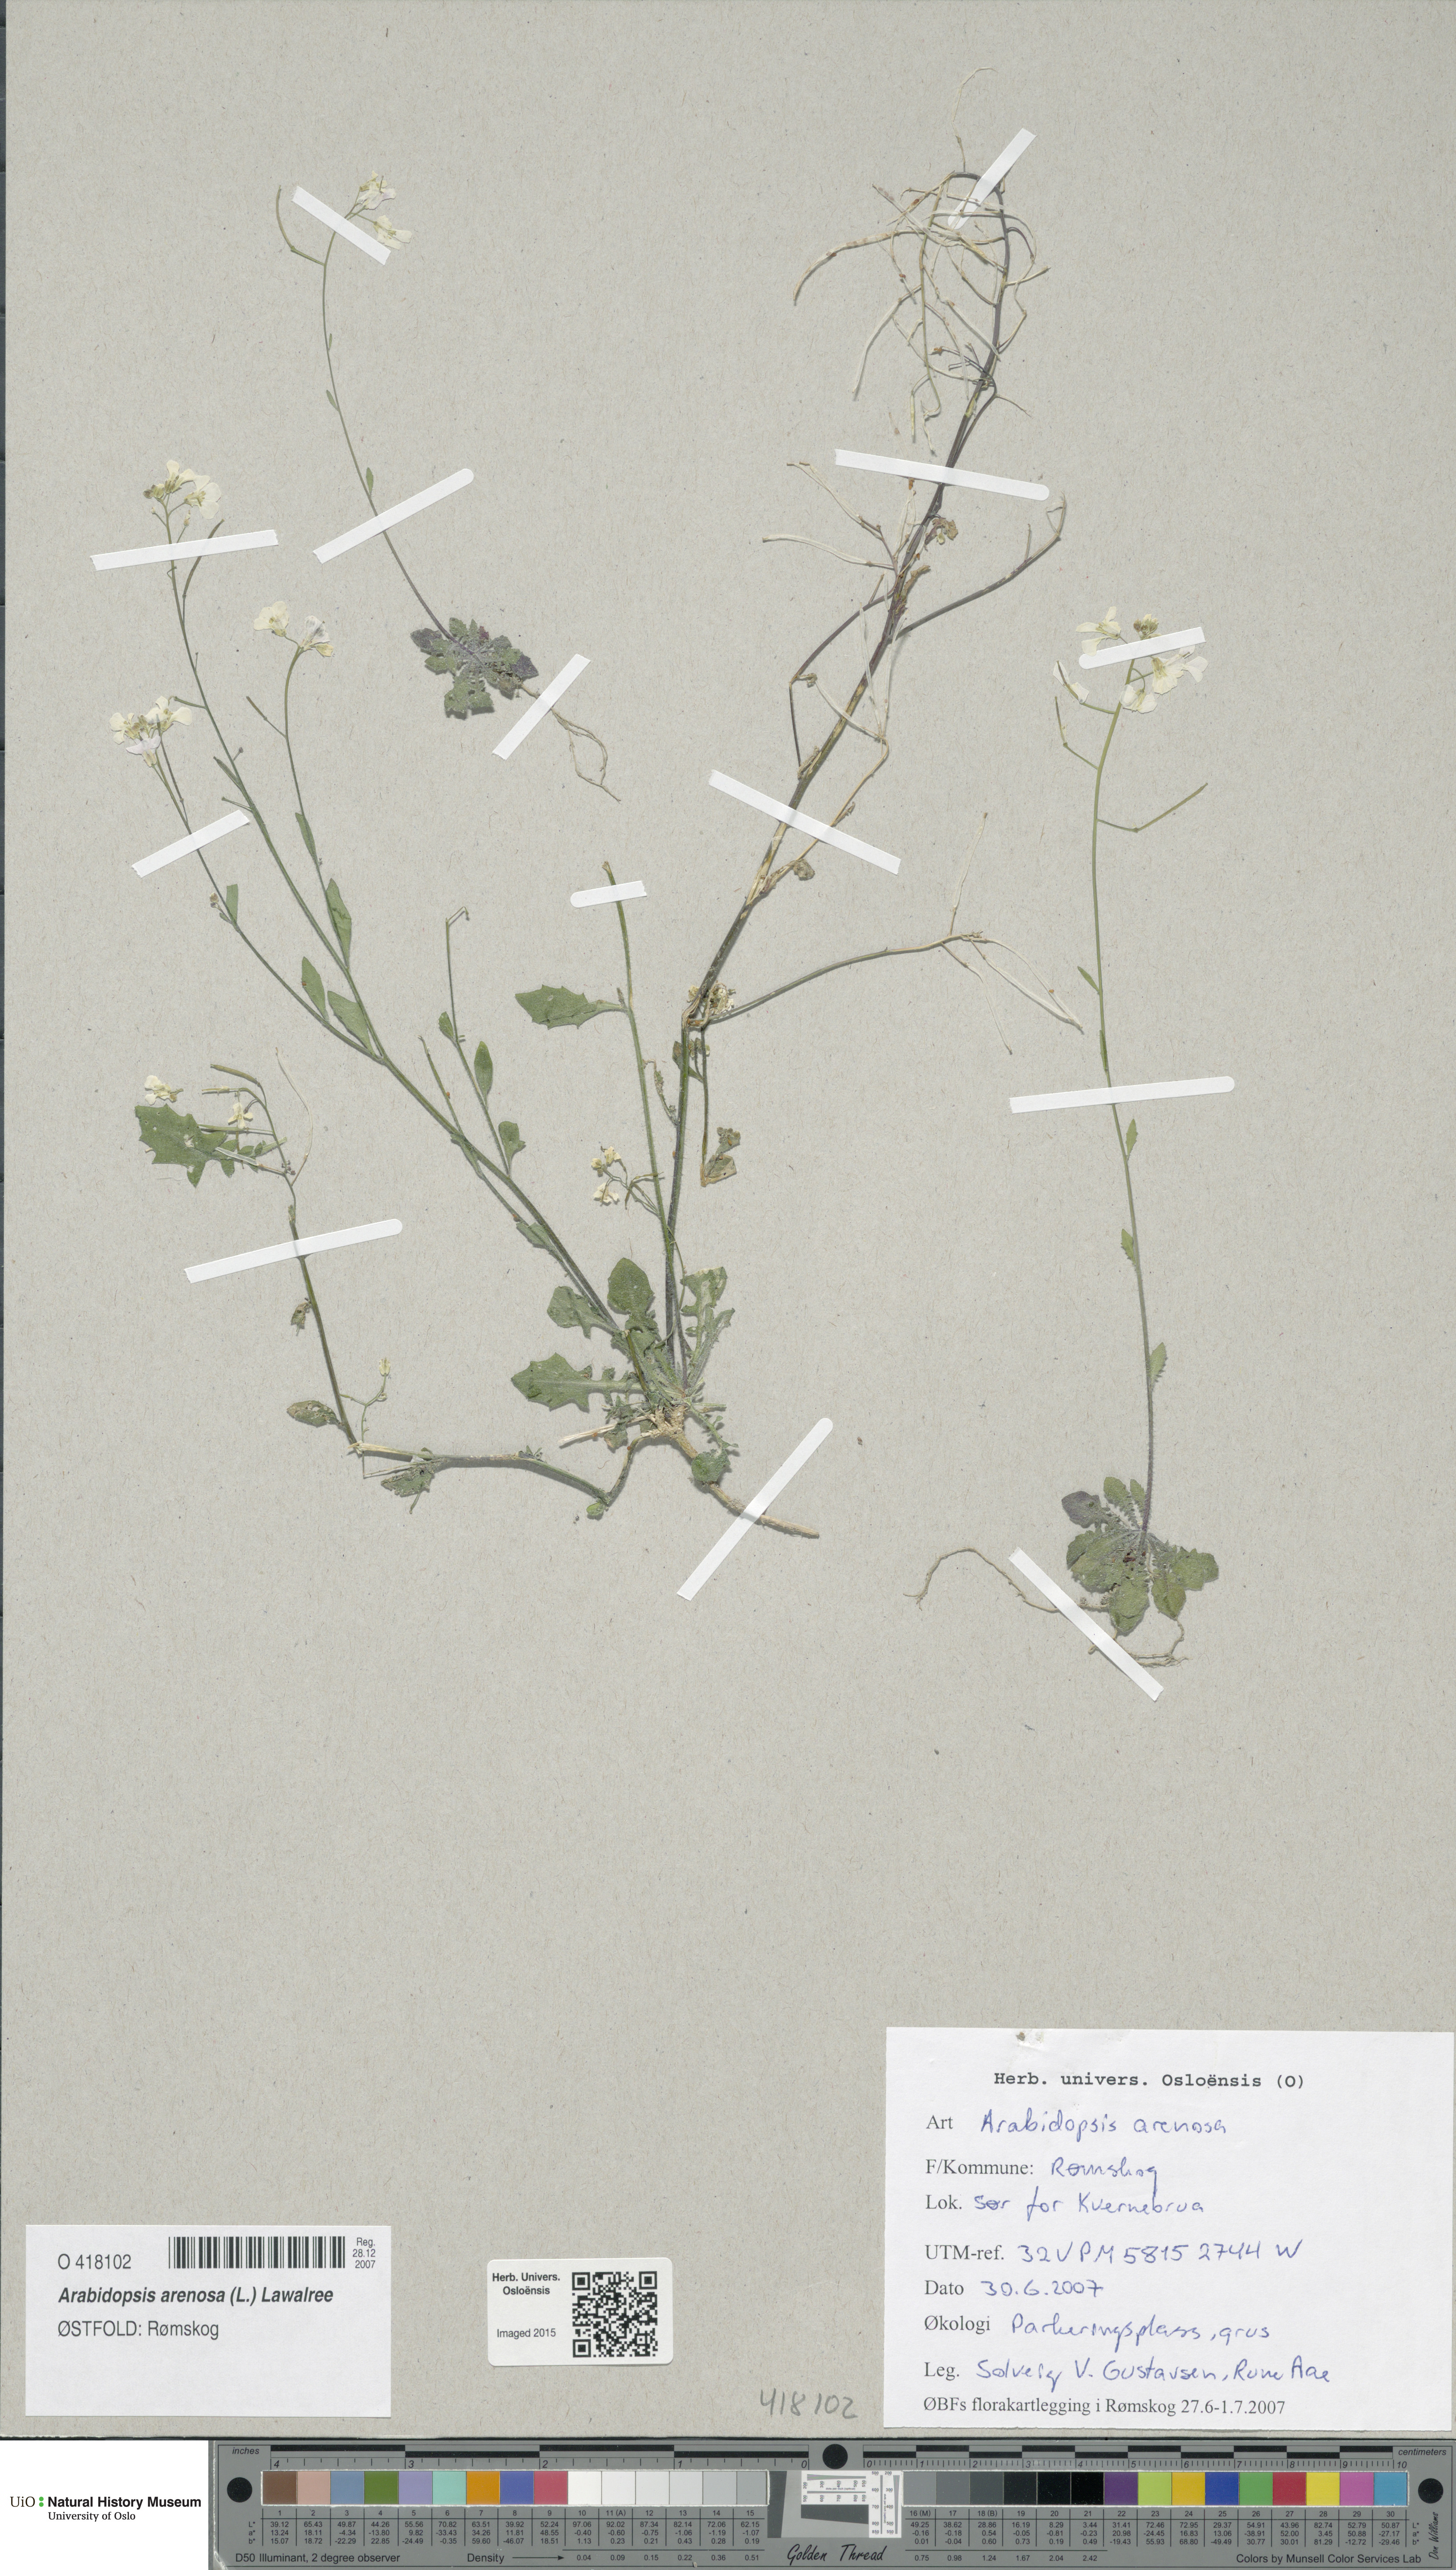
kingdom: Plantae
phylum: Tracheophyta
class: Magnoliopsida
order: Brassicales
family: Brassicaceae
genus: Arabidopsis
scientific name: Arabidopsis arenosa
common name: Sand rock-cress
